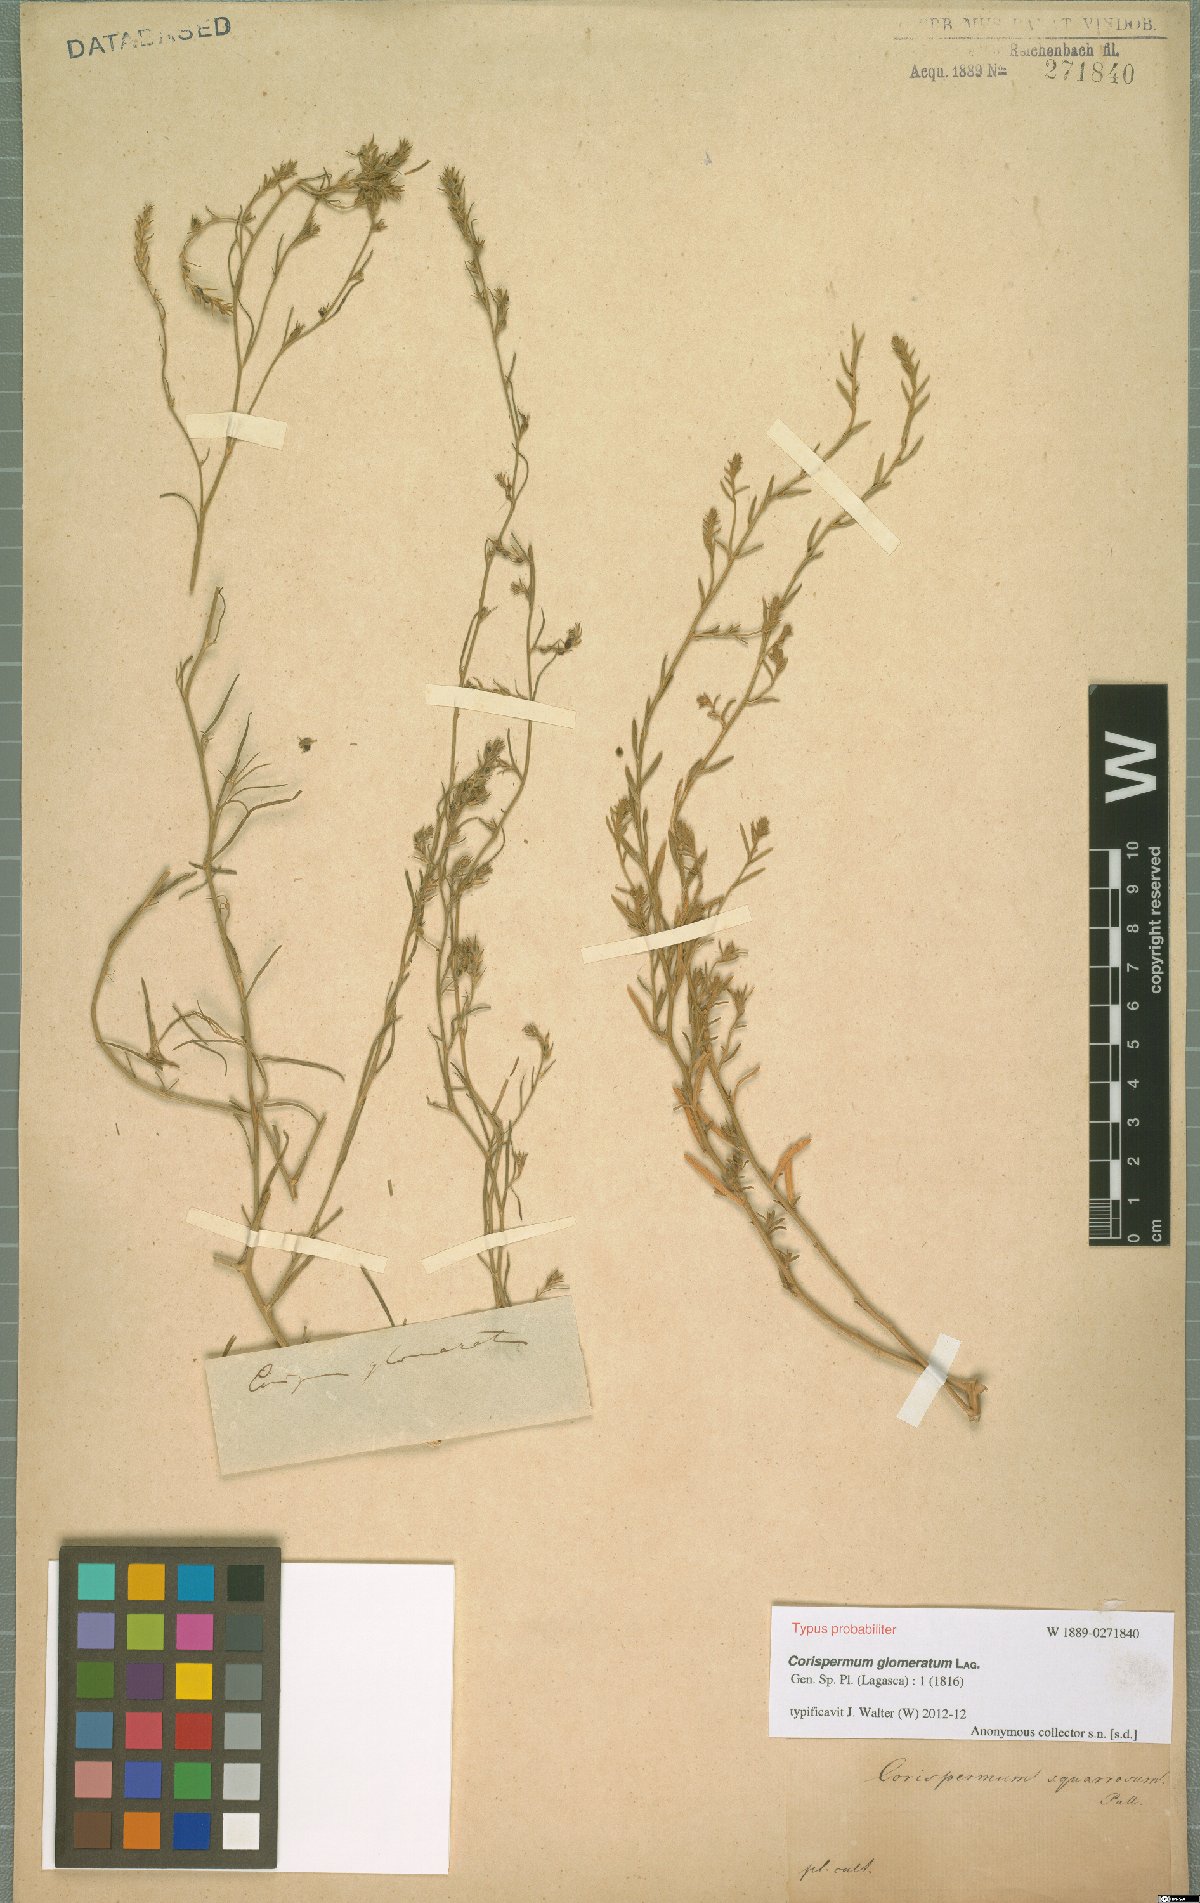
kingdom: Plantae
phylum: Tracheophyta
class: Magnoliopsida
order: Caryophyllales
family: Amaranthaceae
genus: Corispermum
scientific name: Corispermum glomeratum
